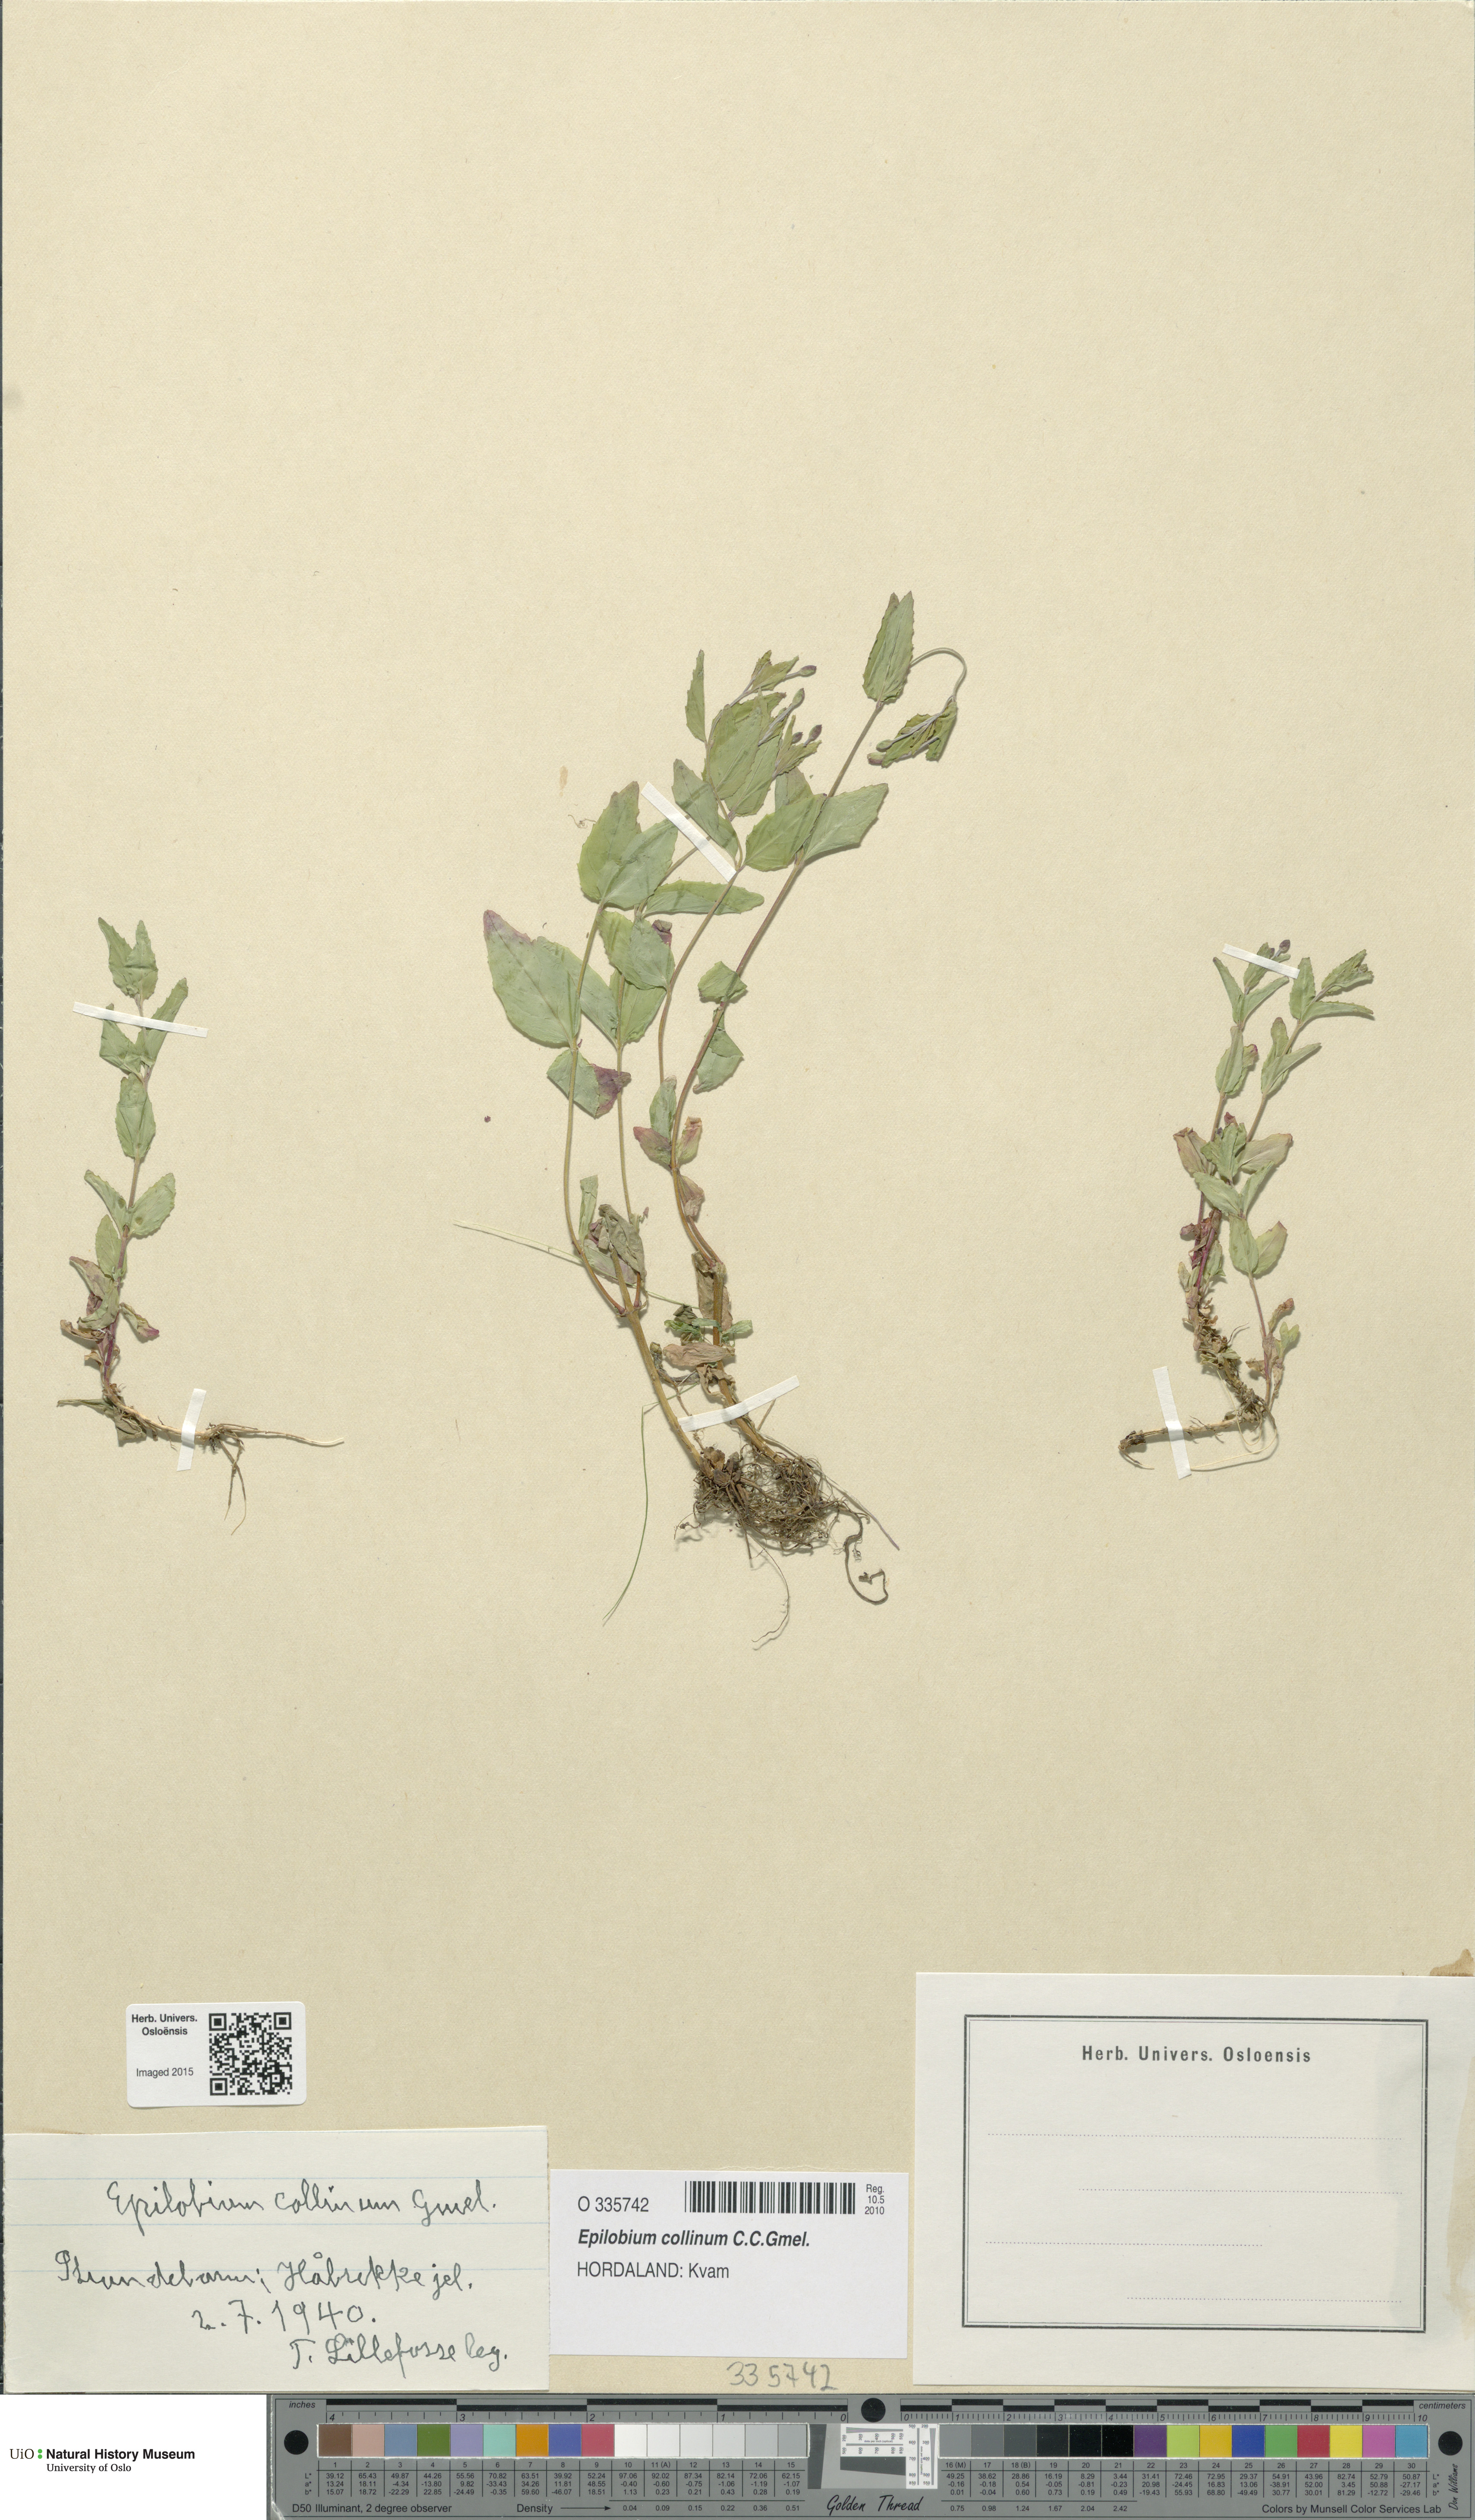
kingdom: Plantae
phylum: Tracheophyta
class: Magnoliopsida
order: Myrtales
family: Onagraceae
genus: Epilobium
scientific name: Epilobium collinum
